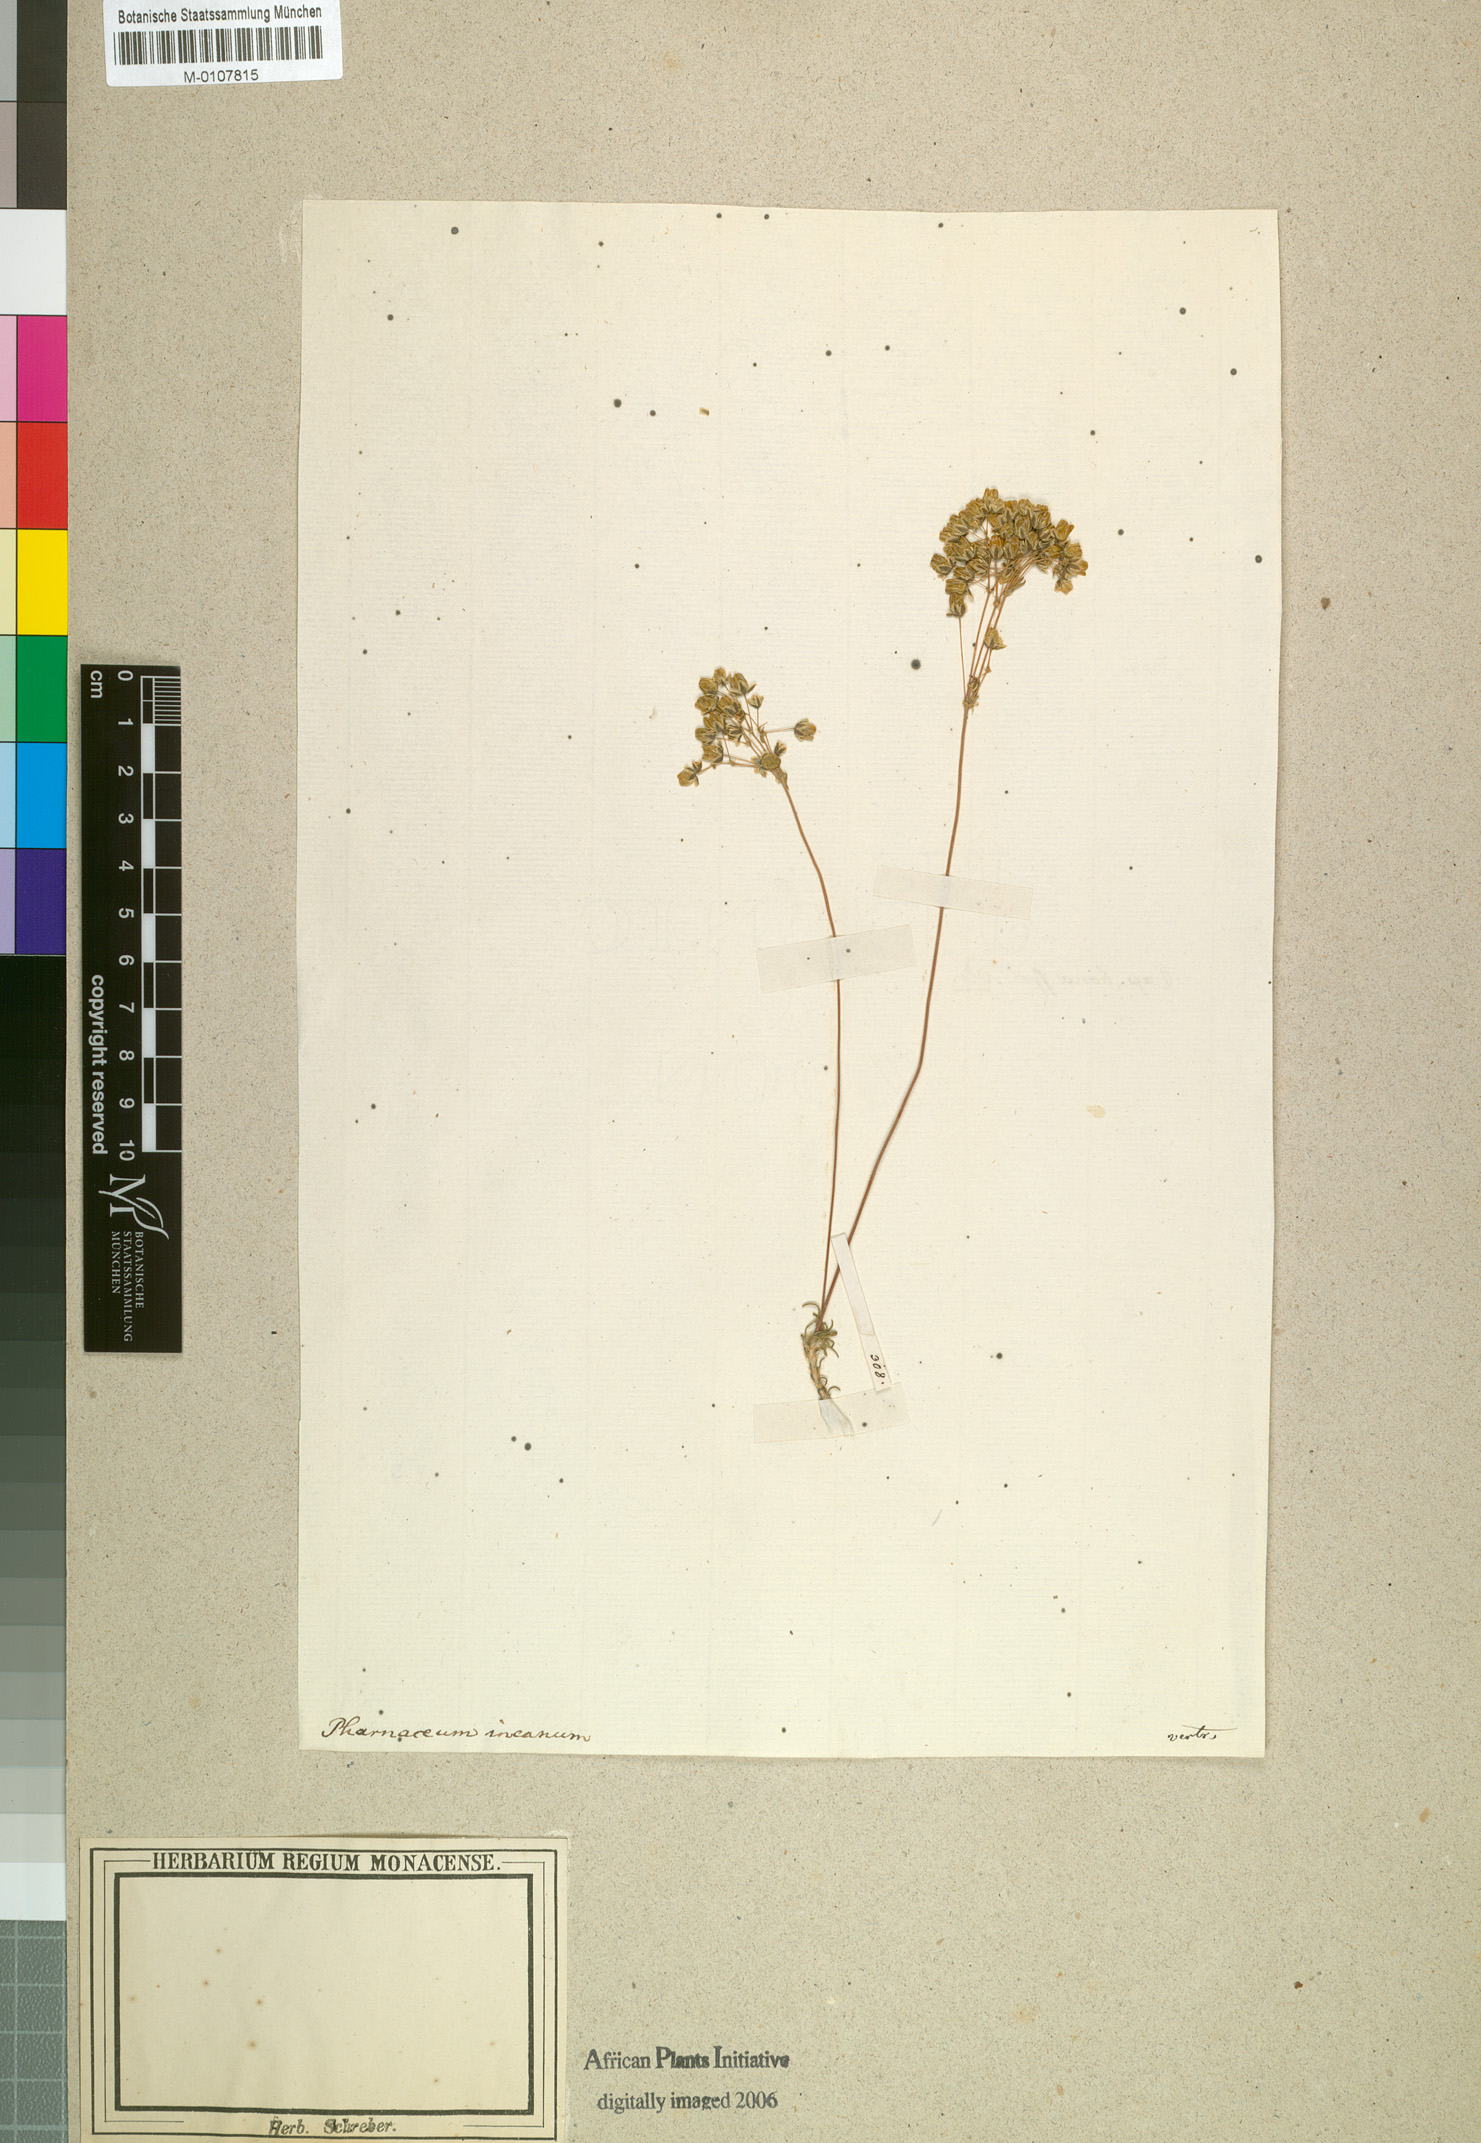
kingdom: Plantae
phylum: Tracheophyta
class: Magnoliopsida
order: Caryophyllales
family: Molluginaceae
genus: Pharnaceum
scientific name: Pharnaceum incanum
